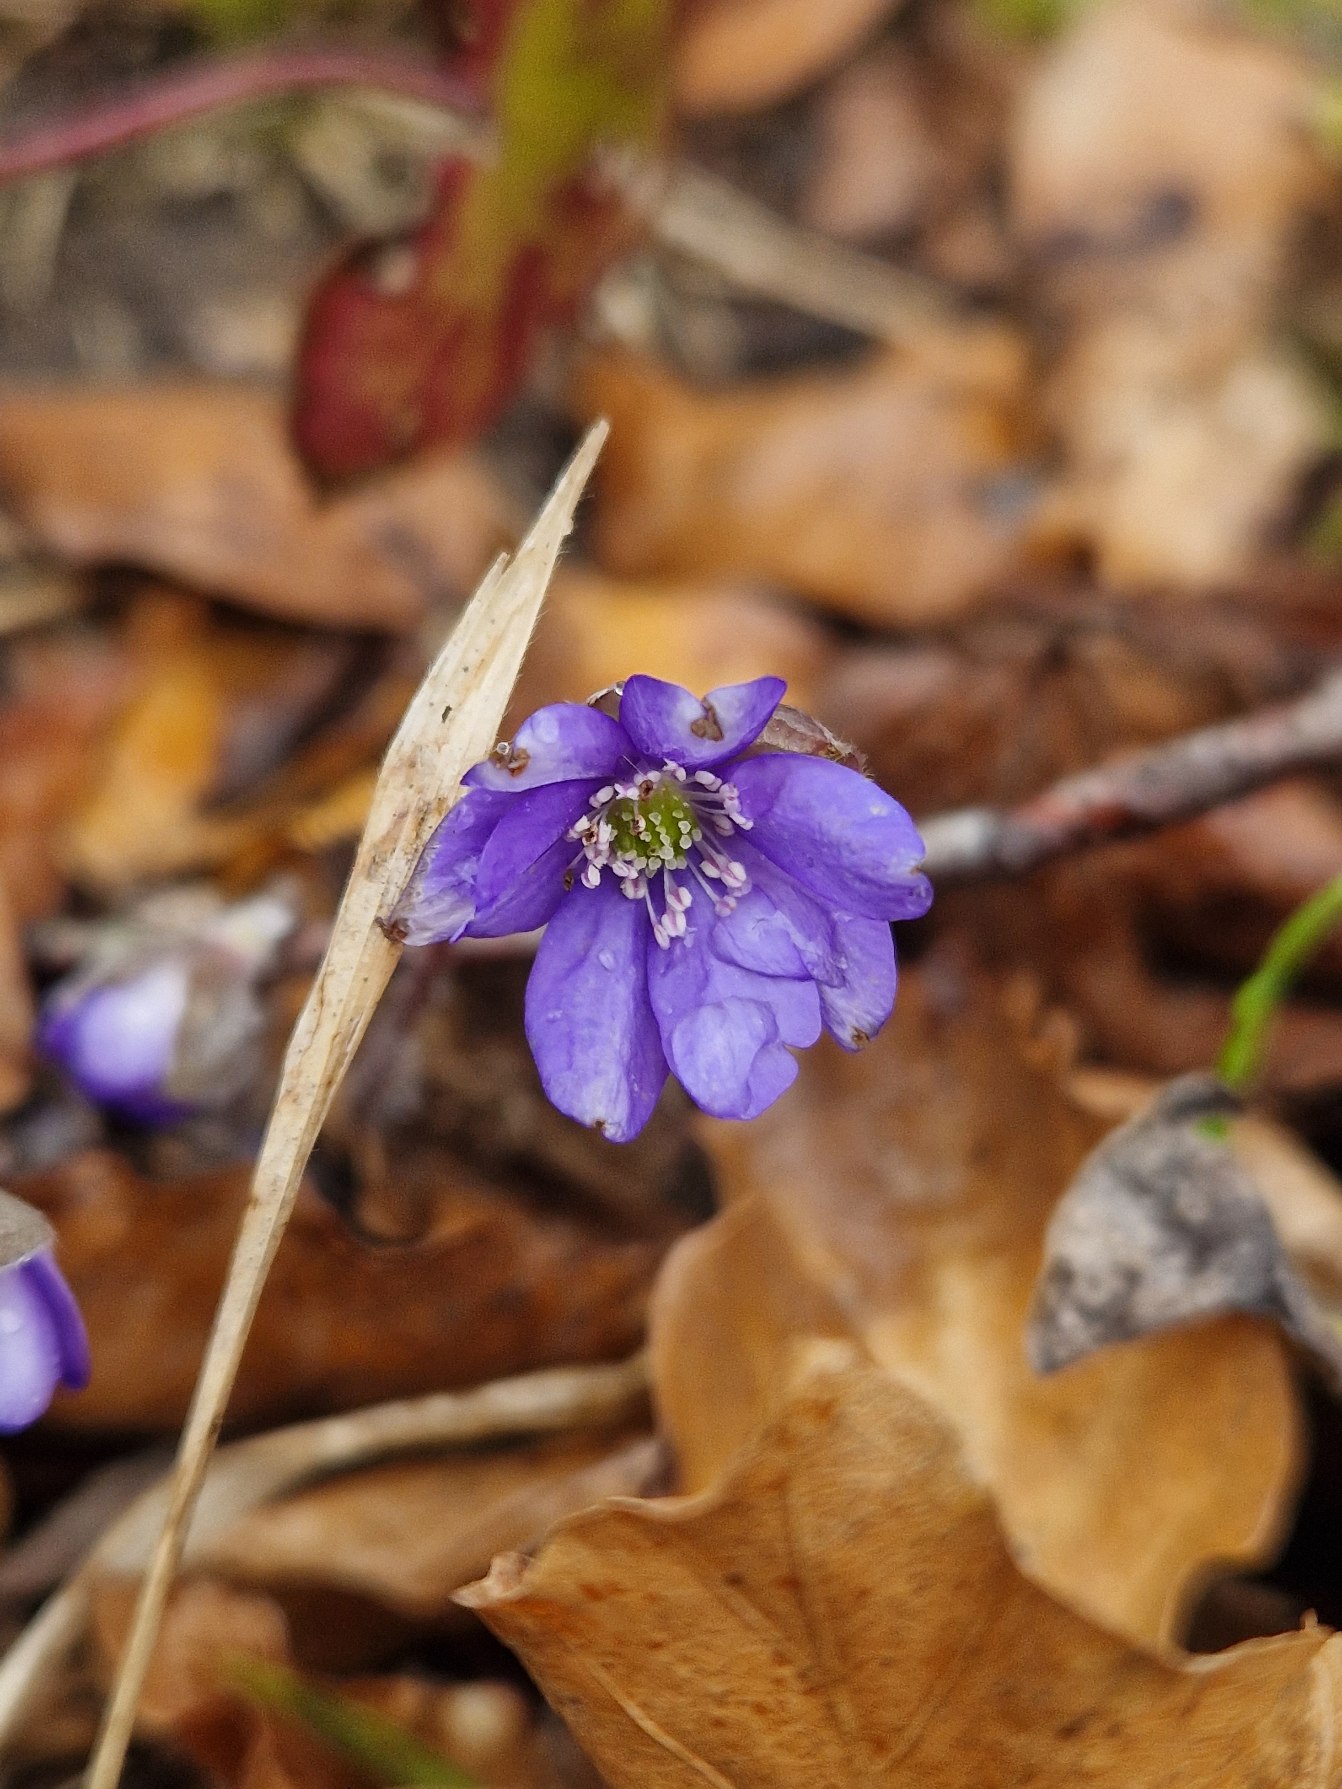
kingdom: Plantae
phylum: Tracheophyta
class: Magnoliopsida
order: Ranunculales
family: Ranunculaceae
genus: Hepatica
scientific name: Hepatica nobilis
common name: Blå anemone
